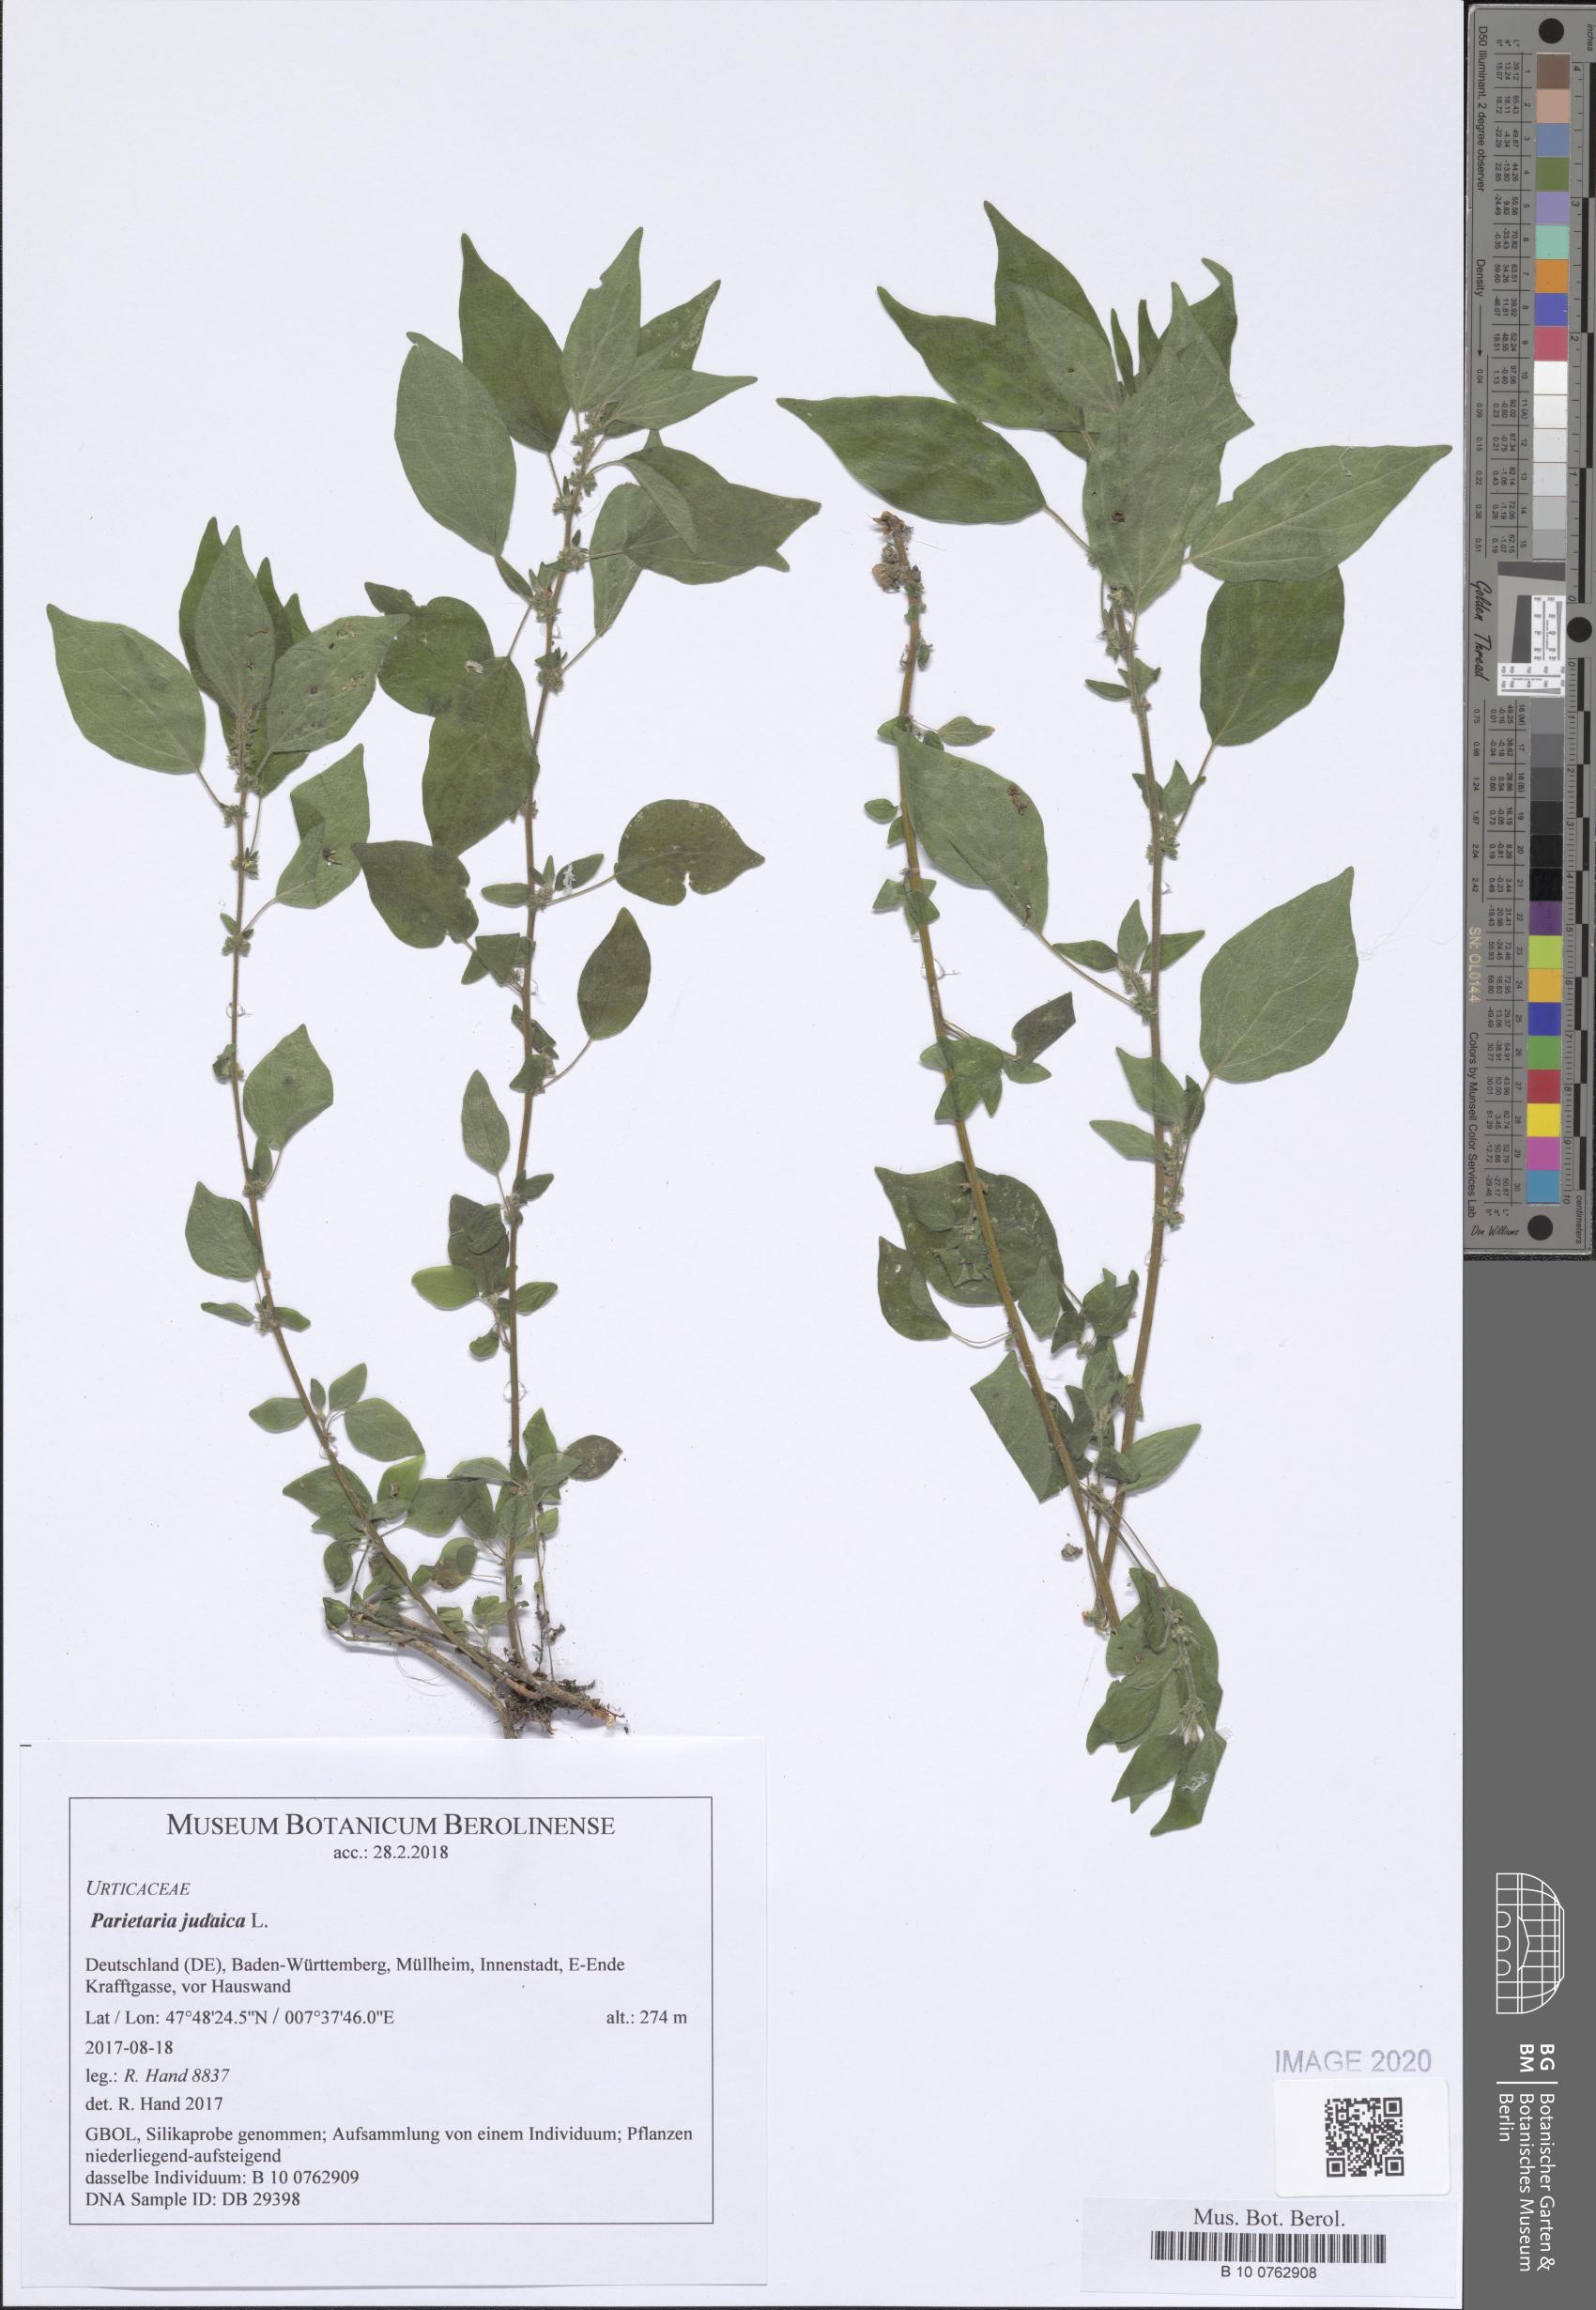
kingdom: Plantae
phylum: Tracheophyta
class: Magnoliopsida
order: Rosales
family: Urticaceae
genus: Parietaria
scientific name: Parietaria judaica
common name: Pellitory-of-the-wall
